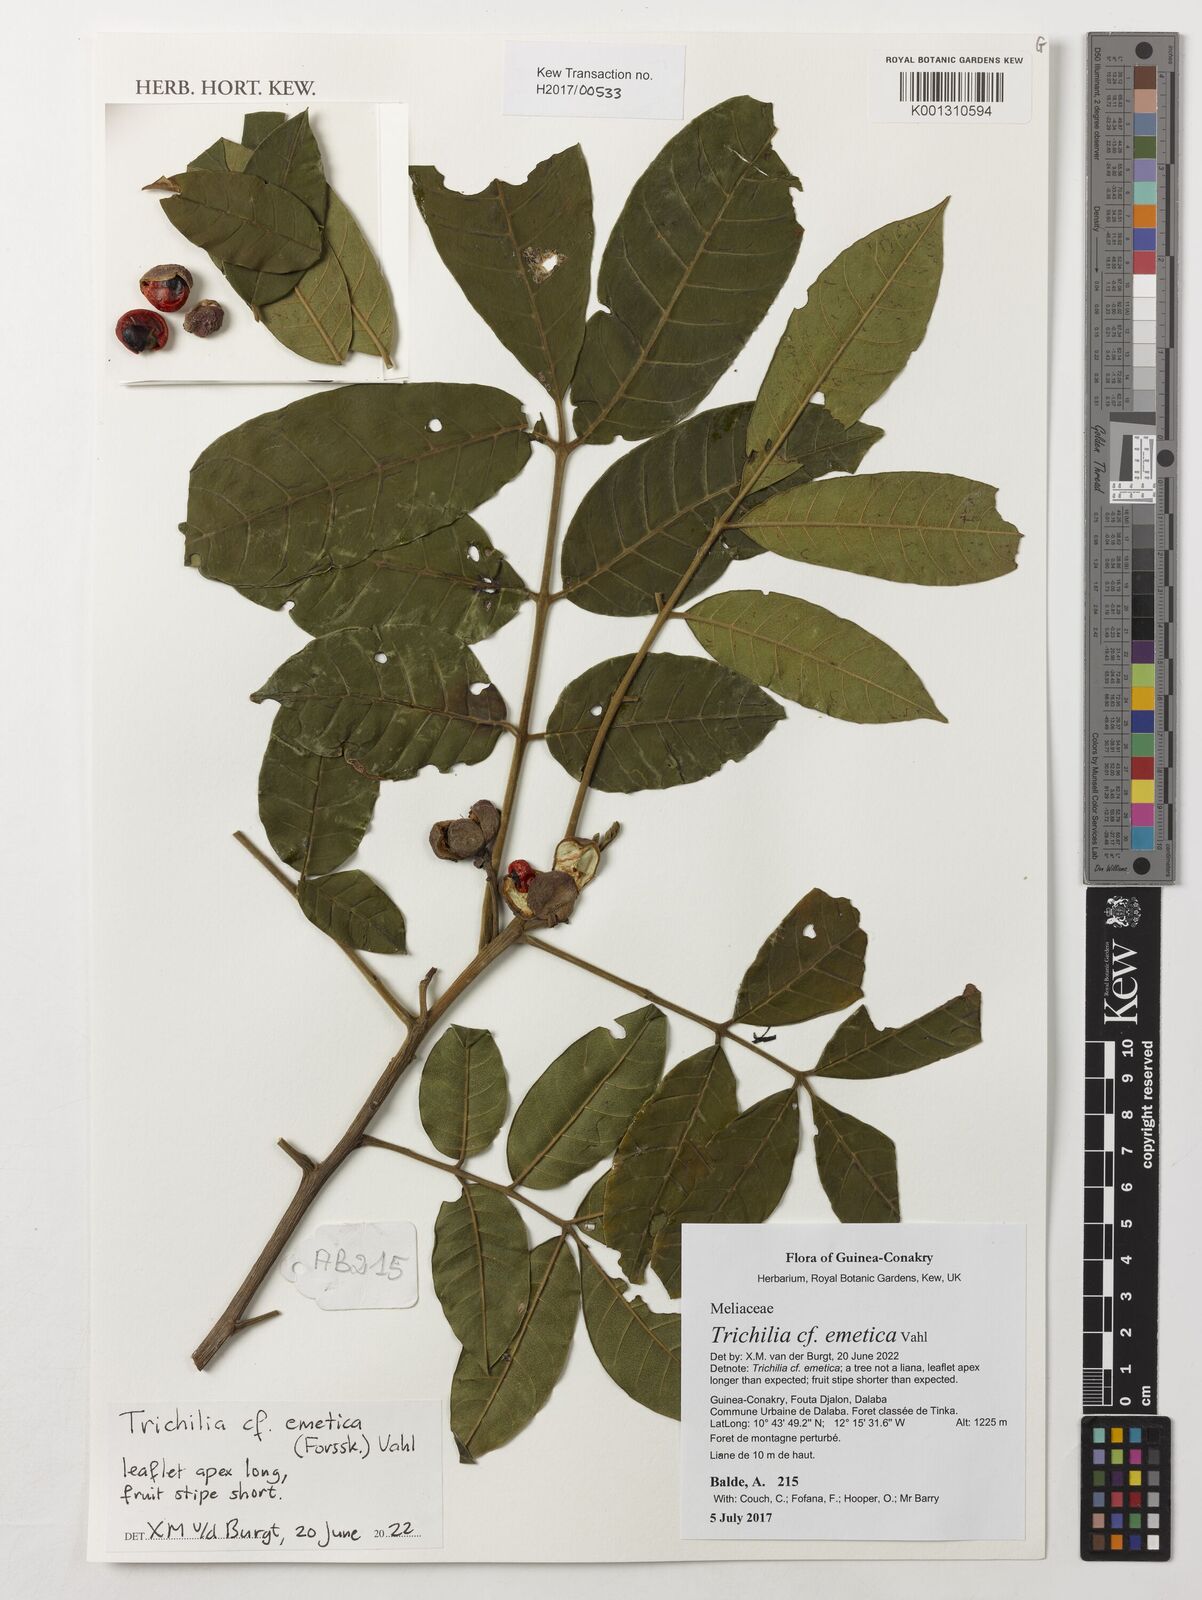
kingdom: Plantae
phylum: Tracheophyta
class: Magnoliopsida
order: Sapindales
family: Meliaceae
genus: Trichilia
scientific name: Trichilia emetica
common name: Christmas-bells
